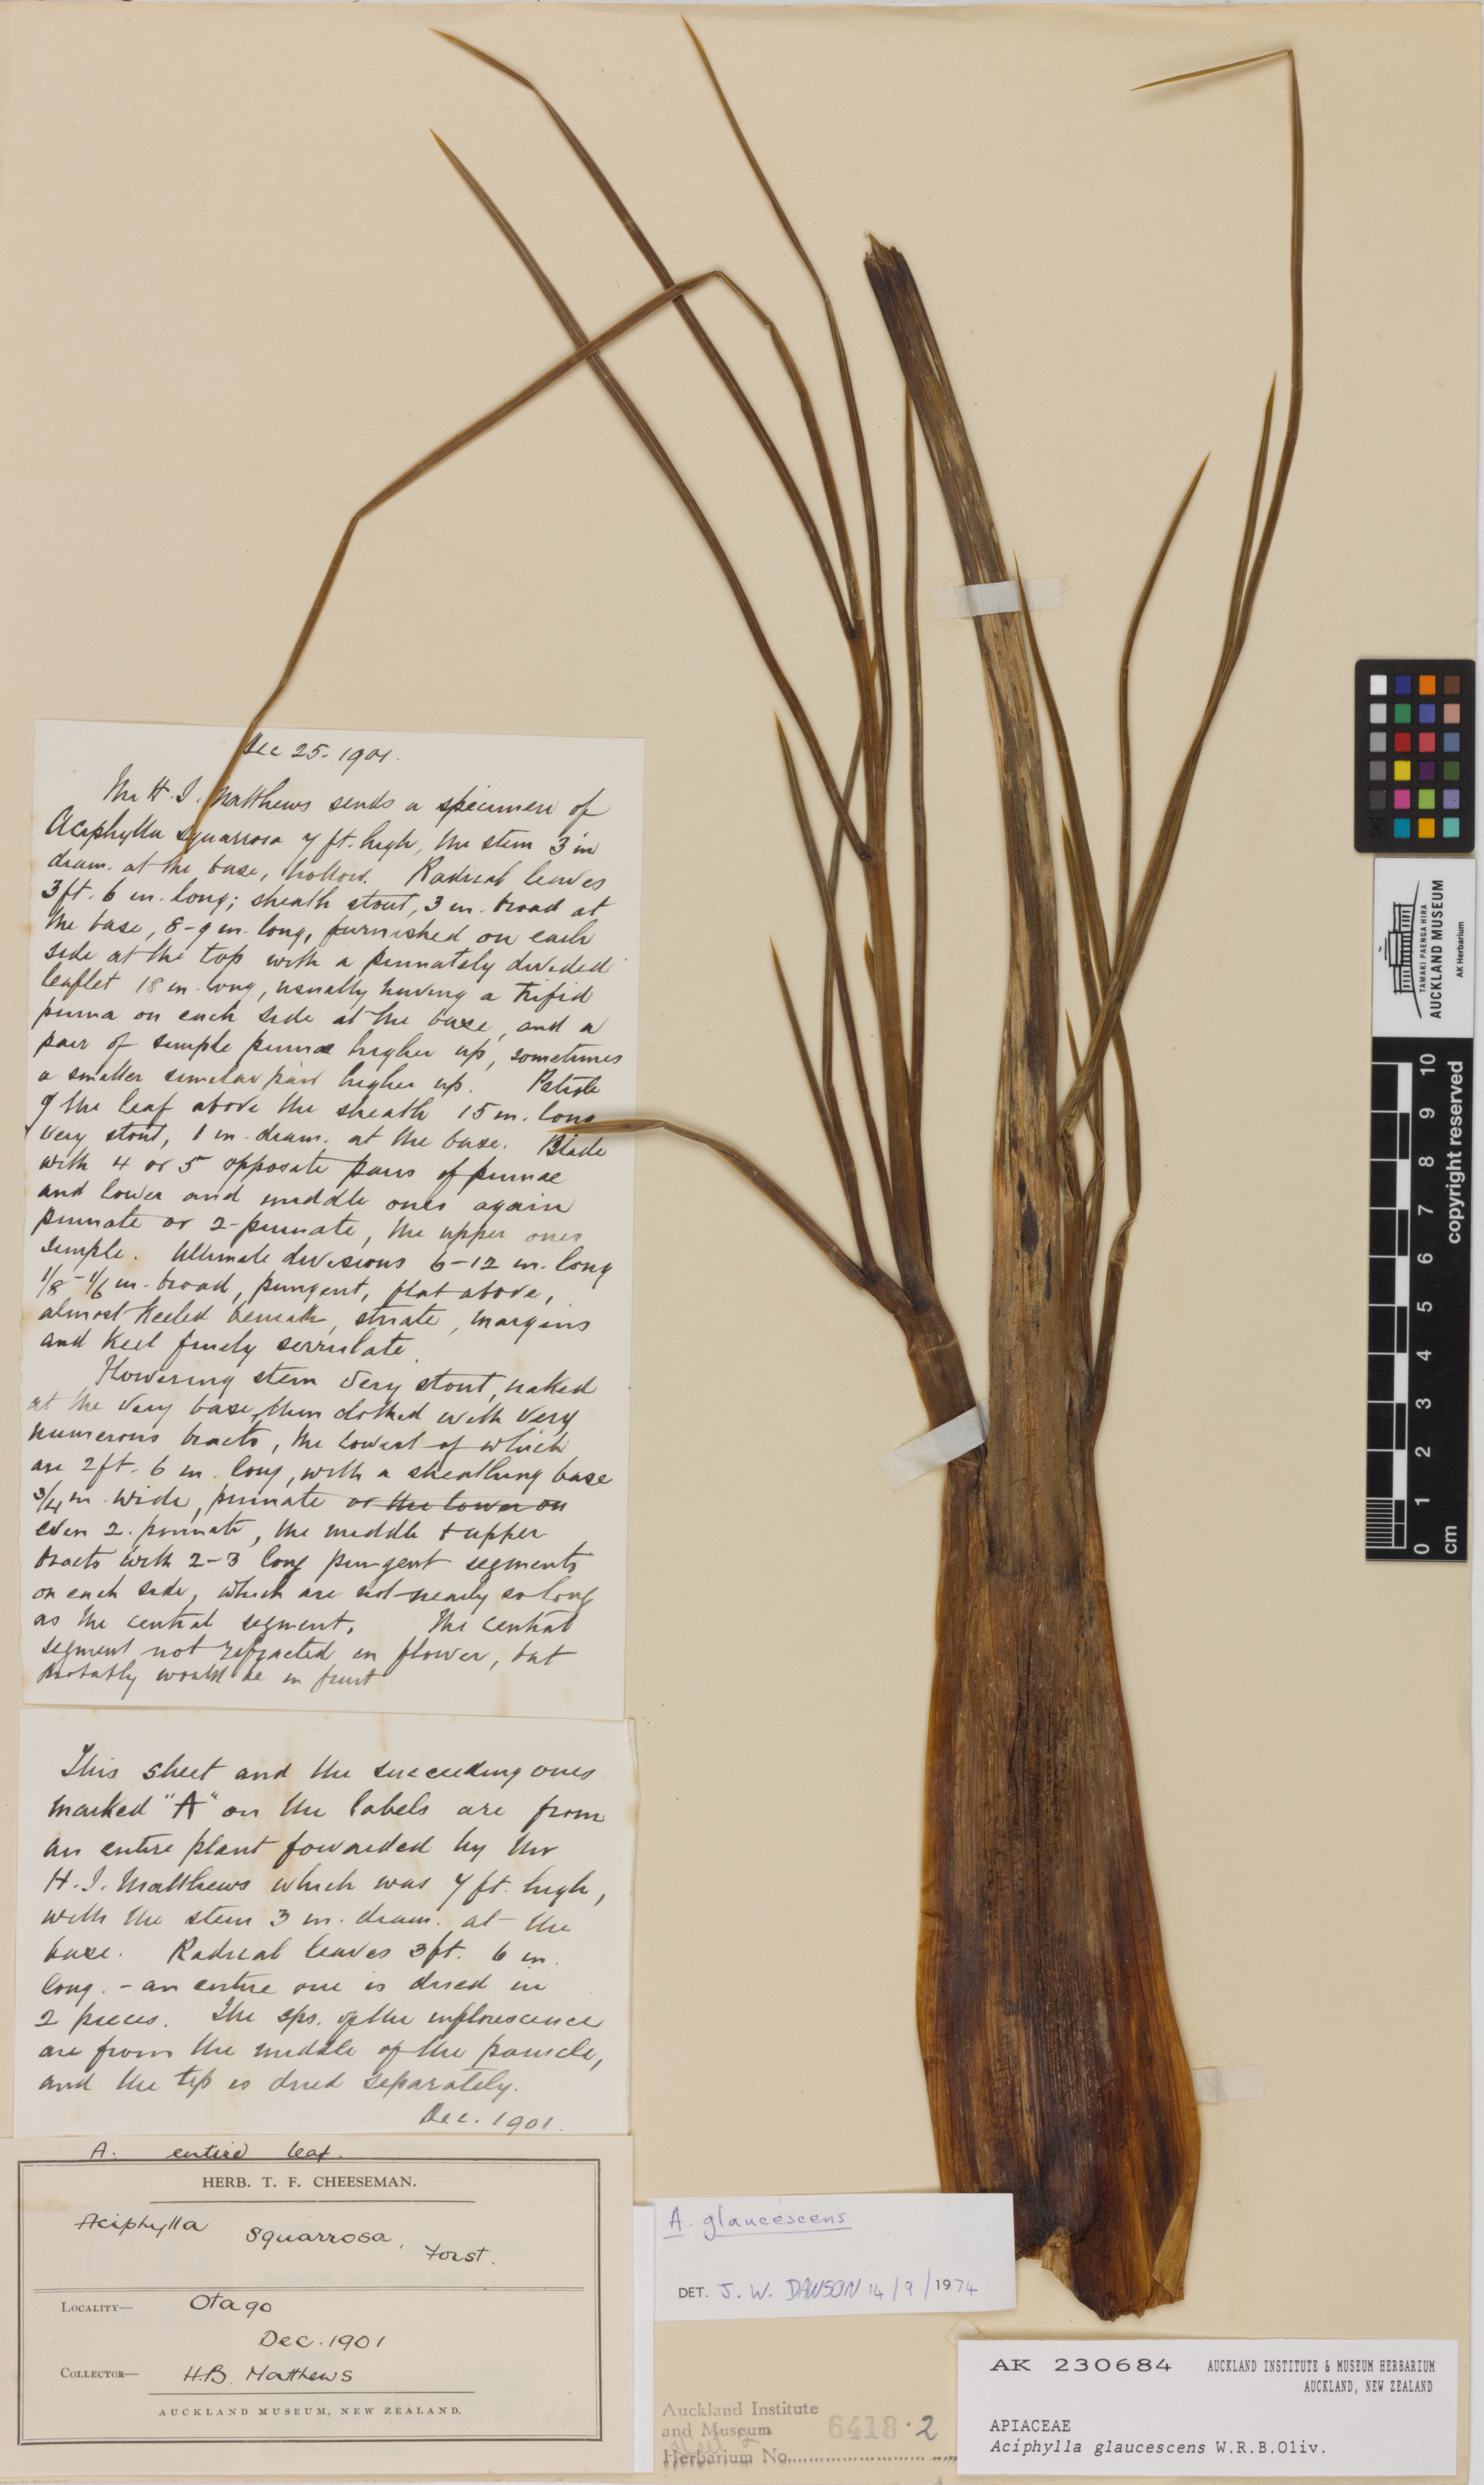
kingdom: Plantae
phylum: Tracheophyta
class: Magnoliopsida
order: Apiales
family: Apiaceae
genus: Aciphylla
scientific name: Aciphylla glaucescens
